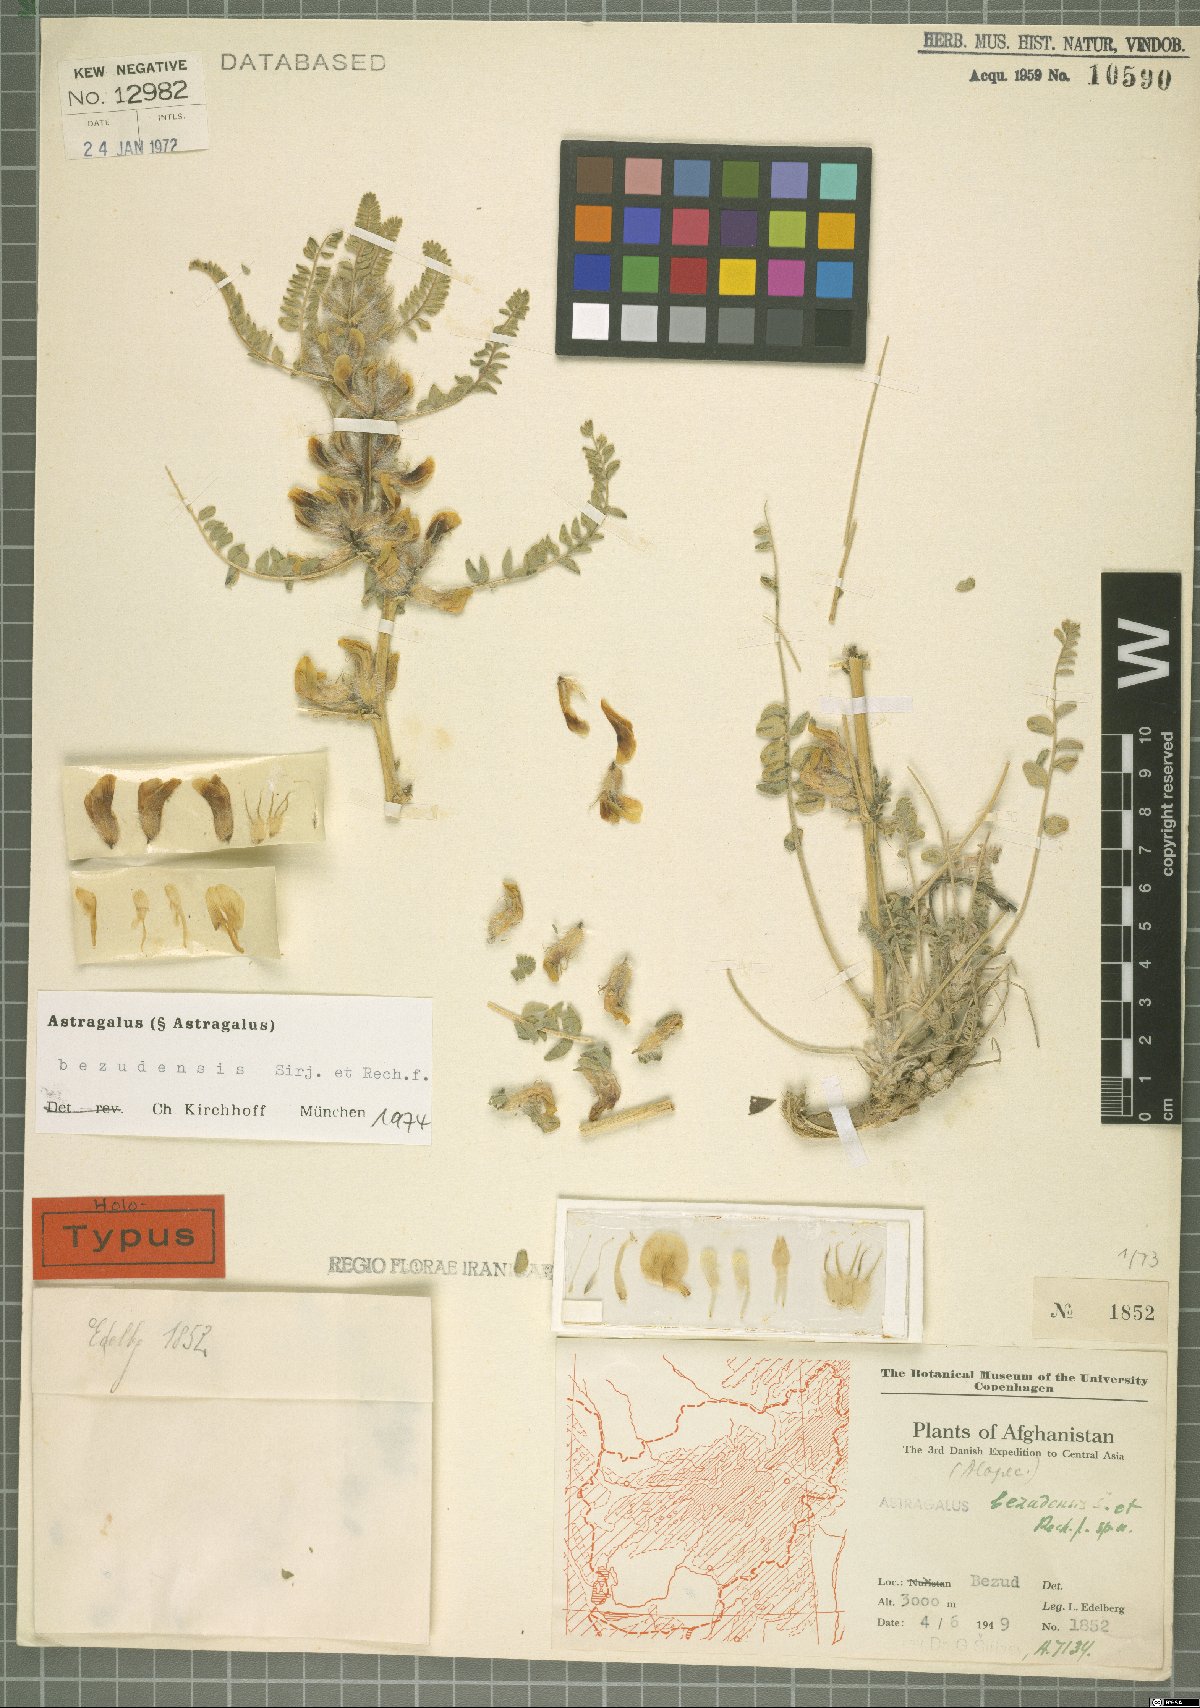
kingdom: Plantae
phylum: Tracheophyta
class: Magnoliopsida
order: Fabales
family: Fabaceae
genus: Astragalus
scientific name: Astragalus bezudensis
